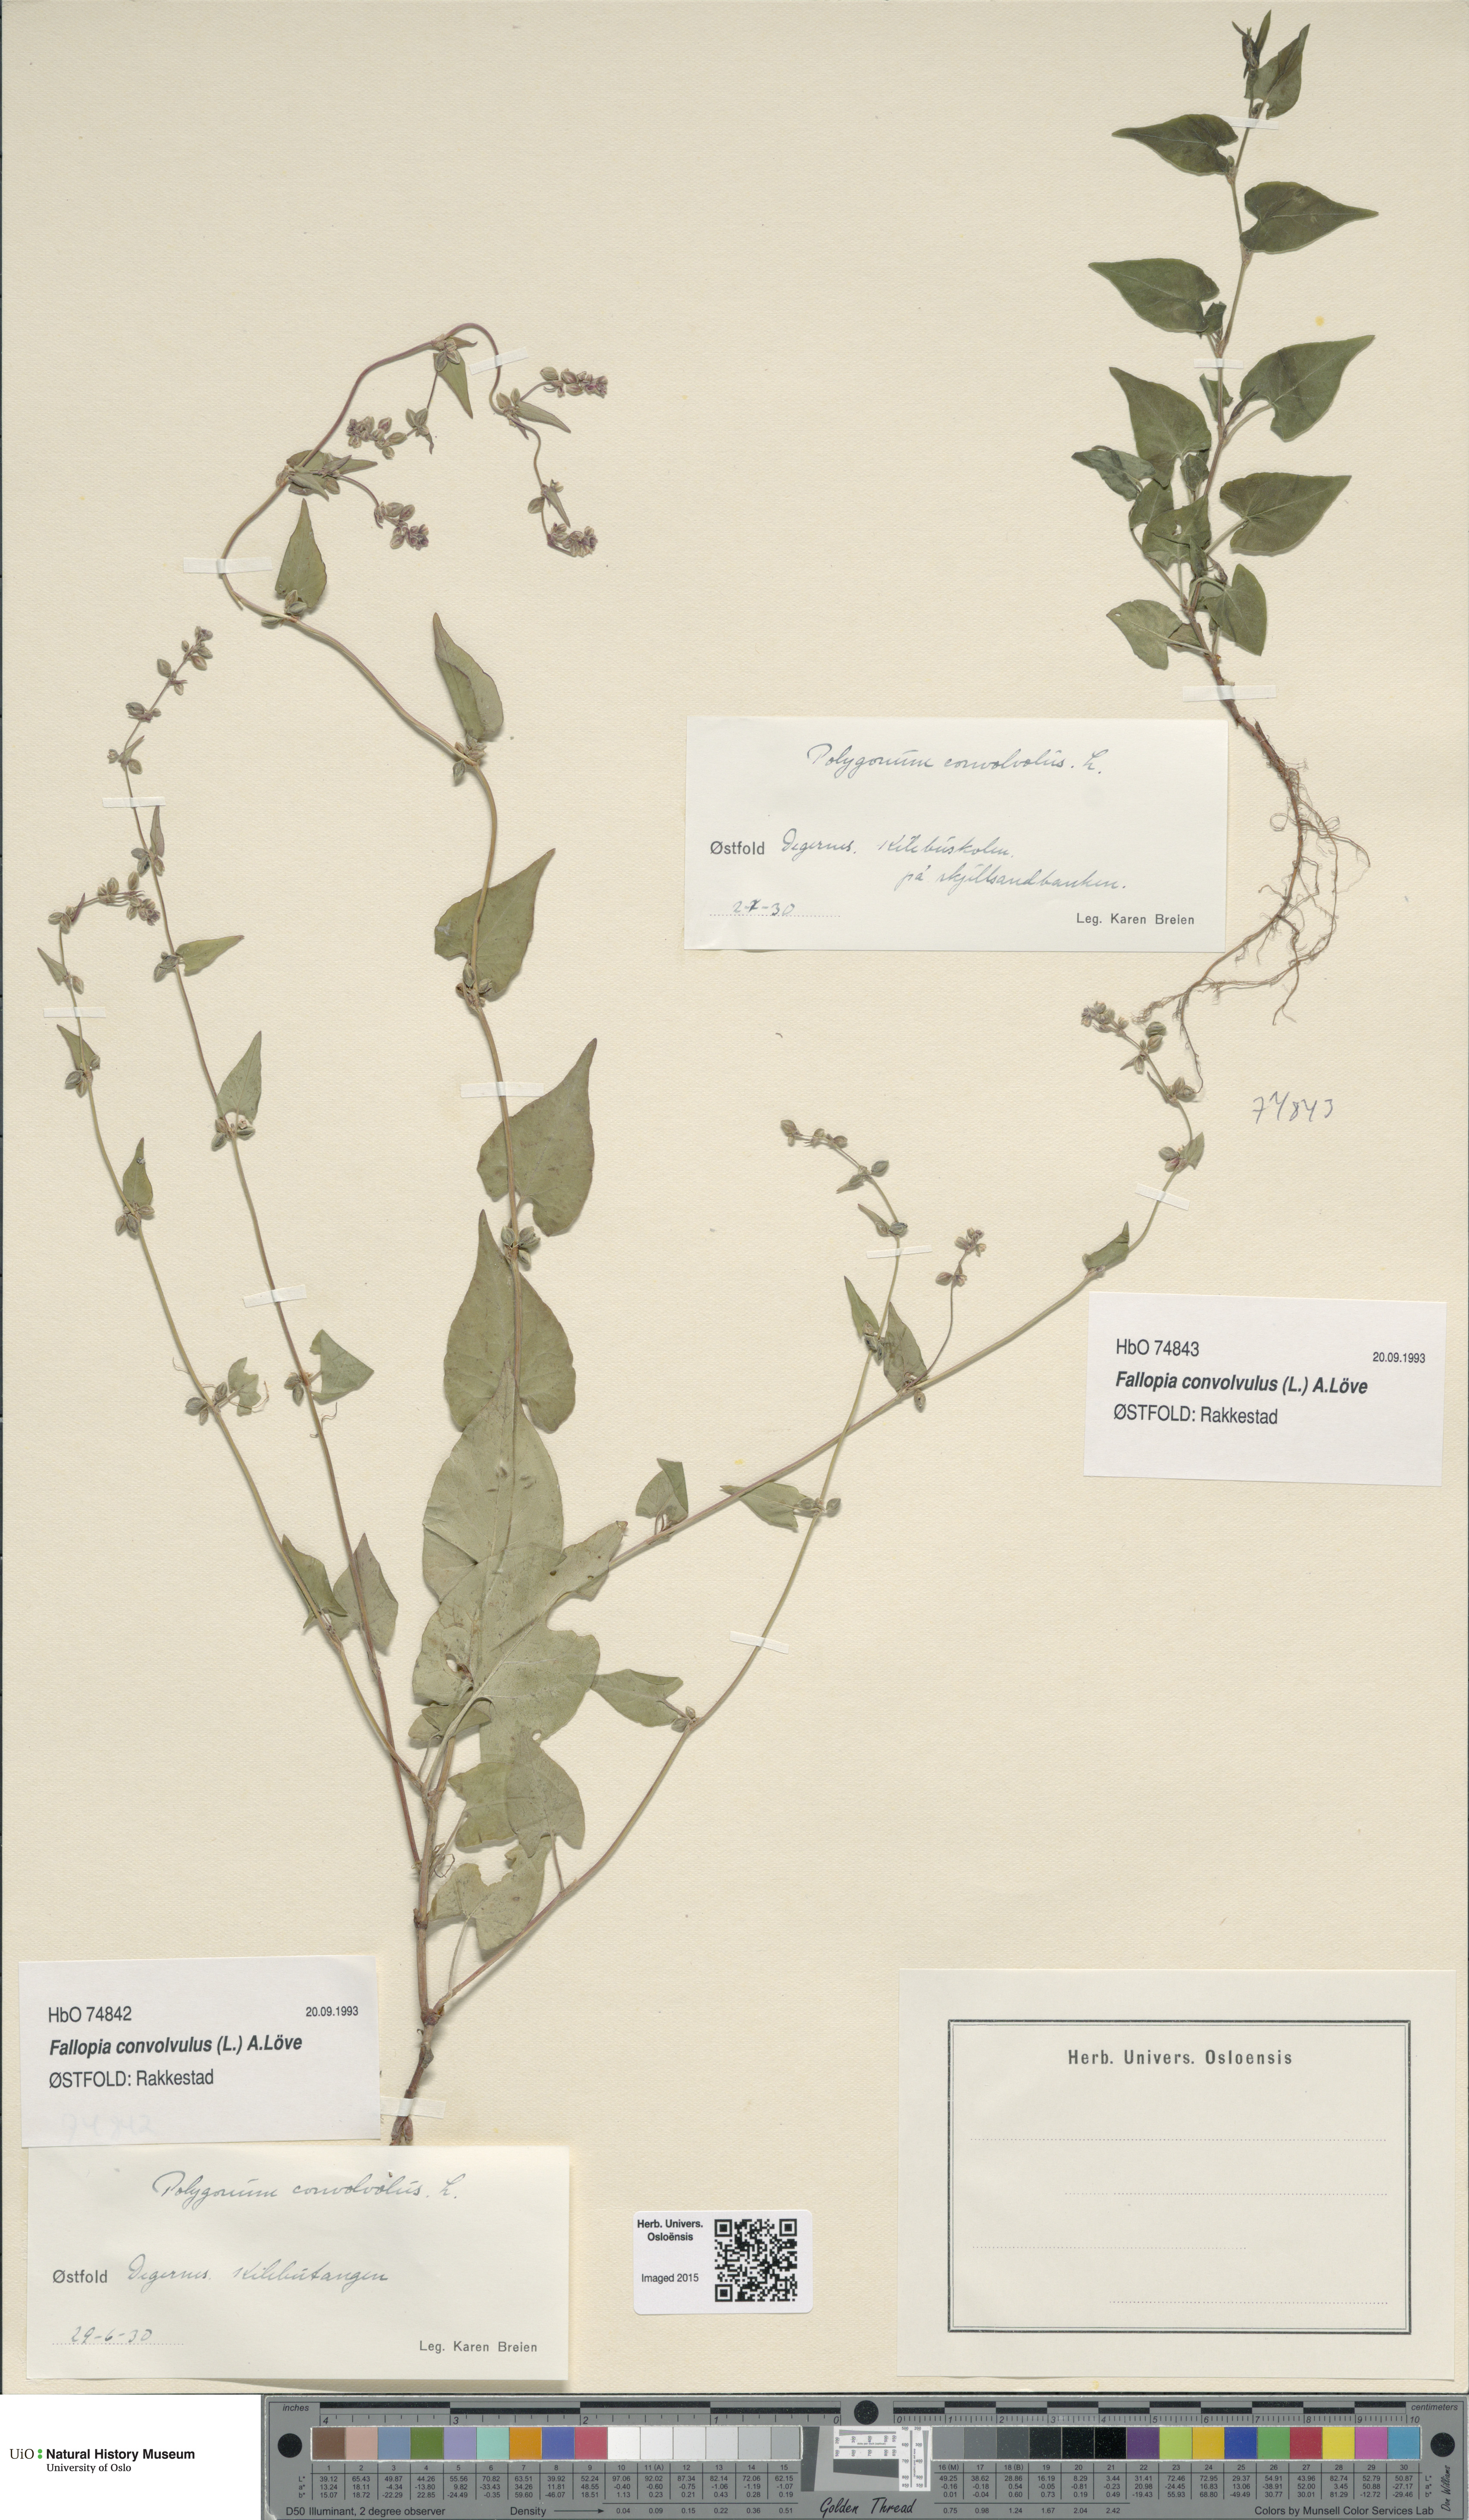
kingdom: Plantae
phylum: Tracheophyta
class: Magnoliopsida
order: Caryophyllales
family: Polygonaceae
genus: Fallopia
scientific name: Fallopia convolvulus
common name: Black bindweed
